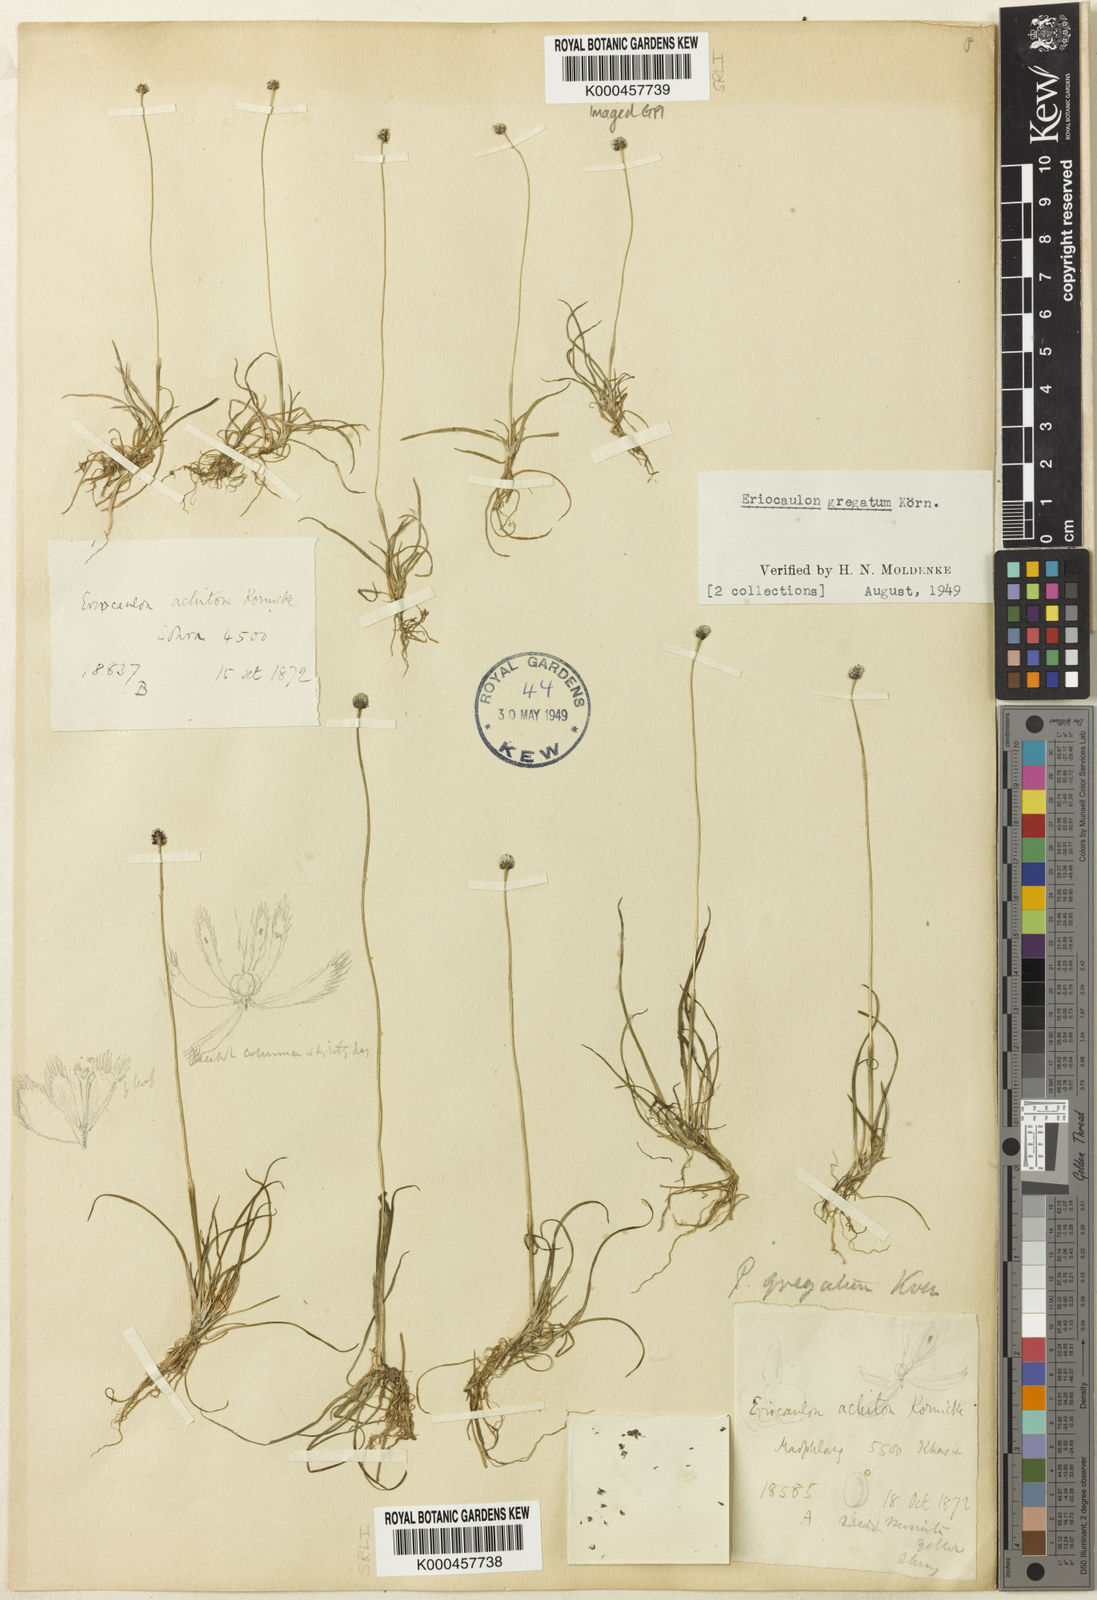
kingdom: Plantae
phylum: Tracheophyta
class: Liliopsida
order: Poales
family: Eriocaulaceae
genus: Eriocaulon
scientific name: Eriocaulon
